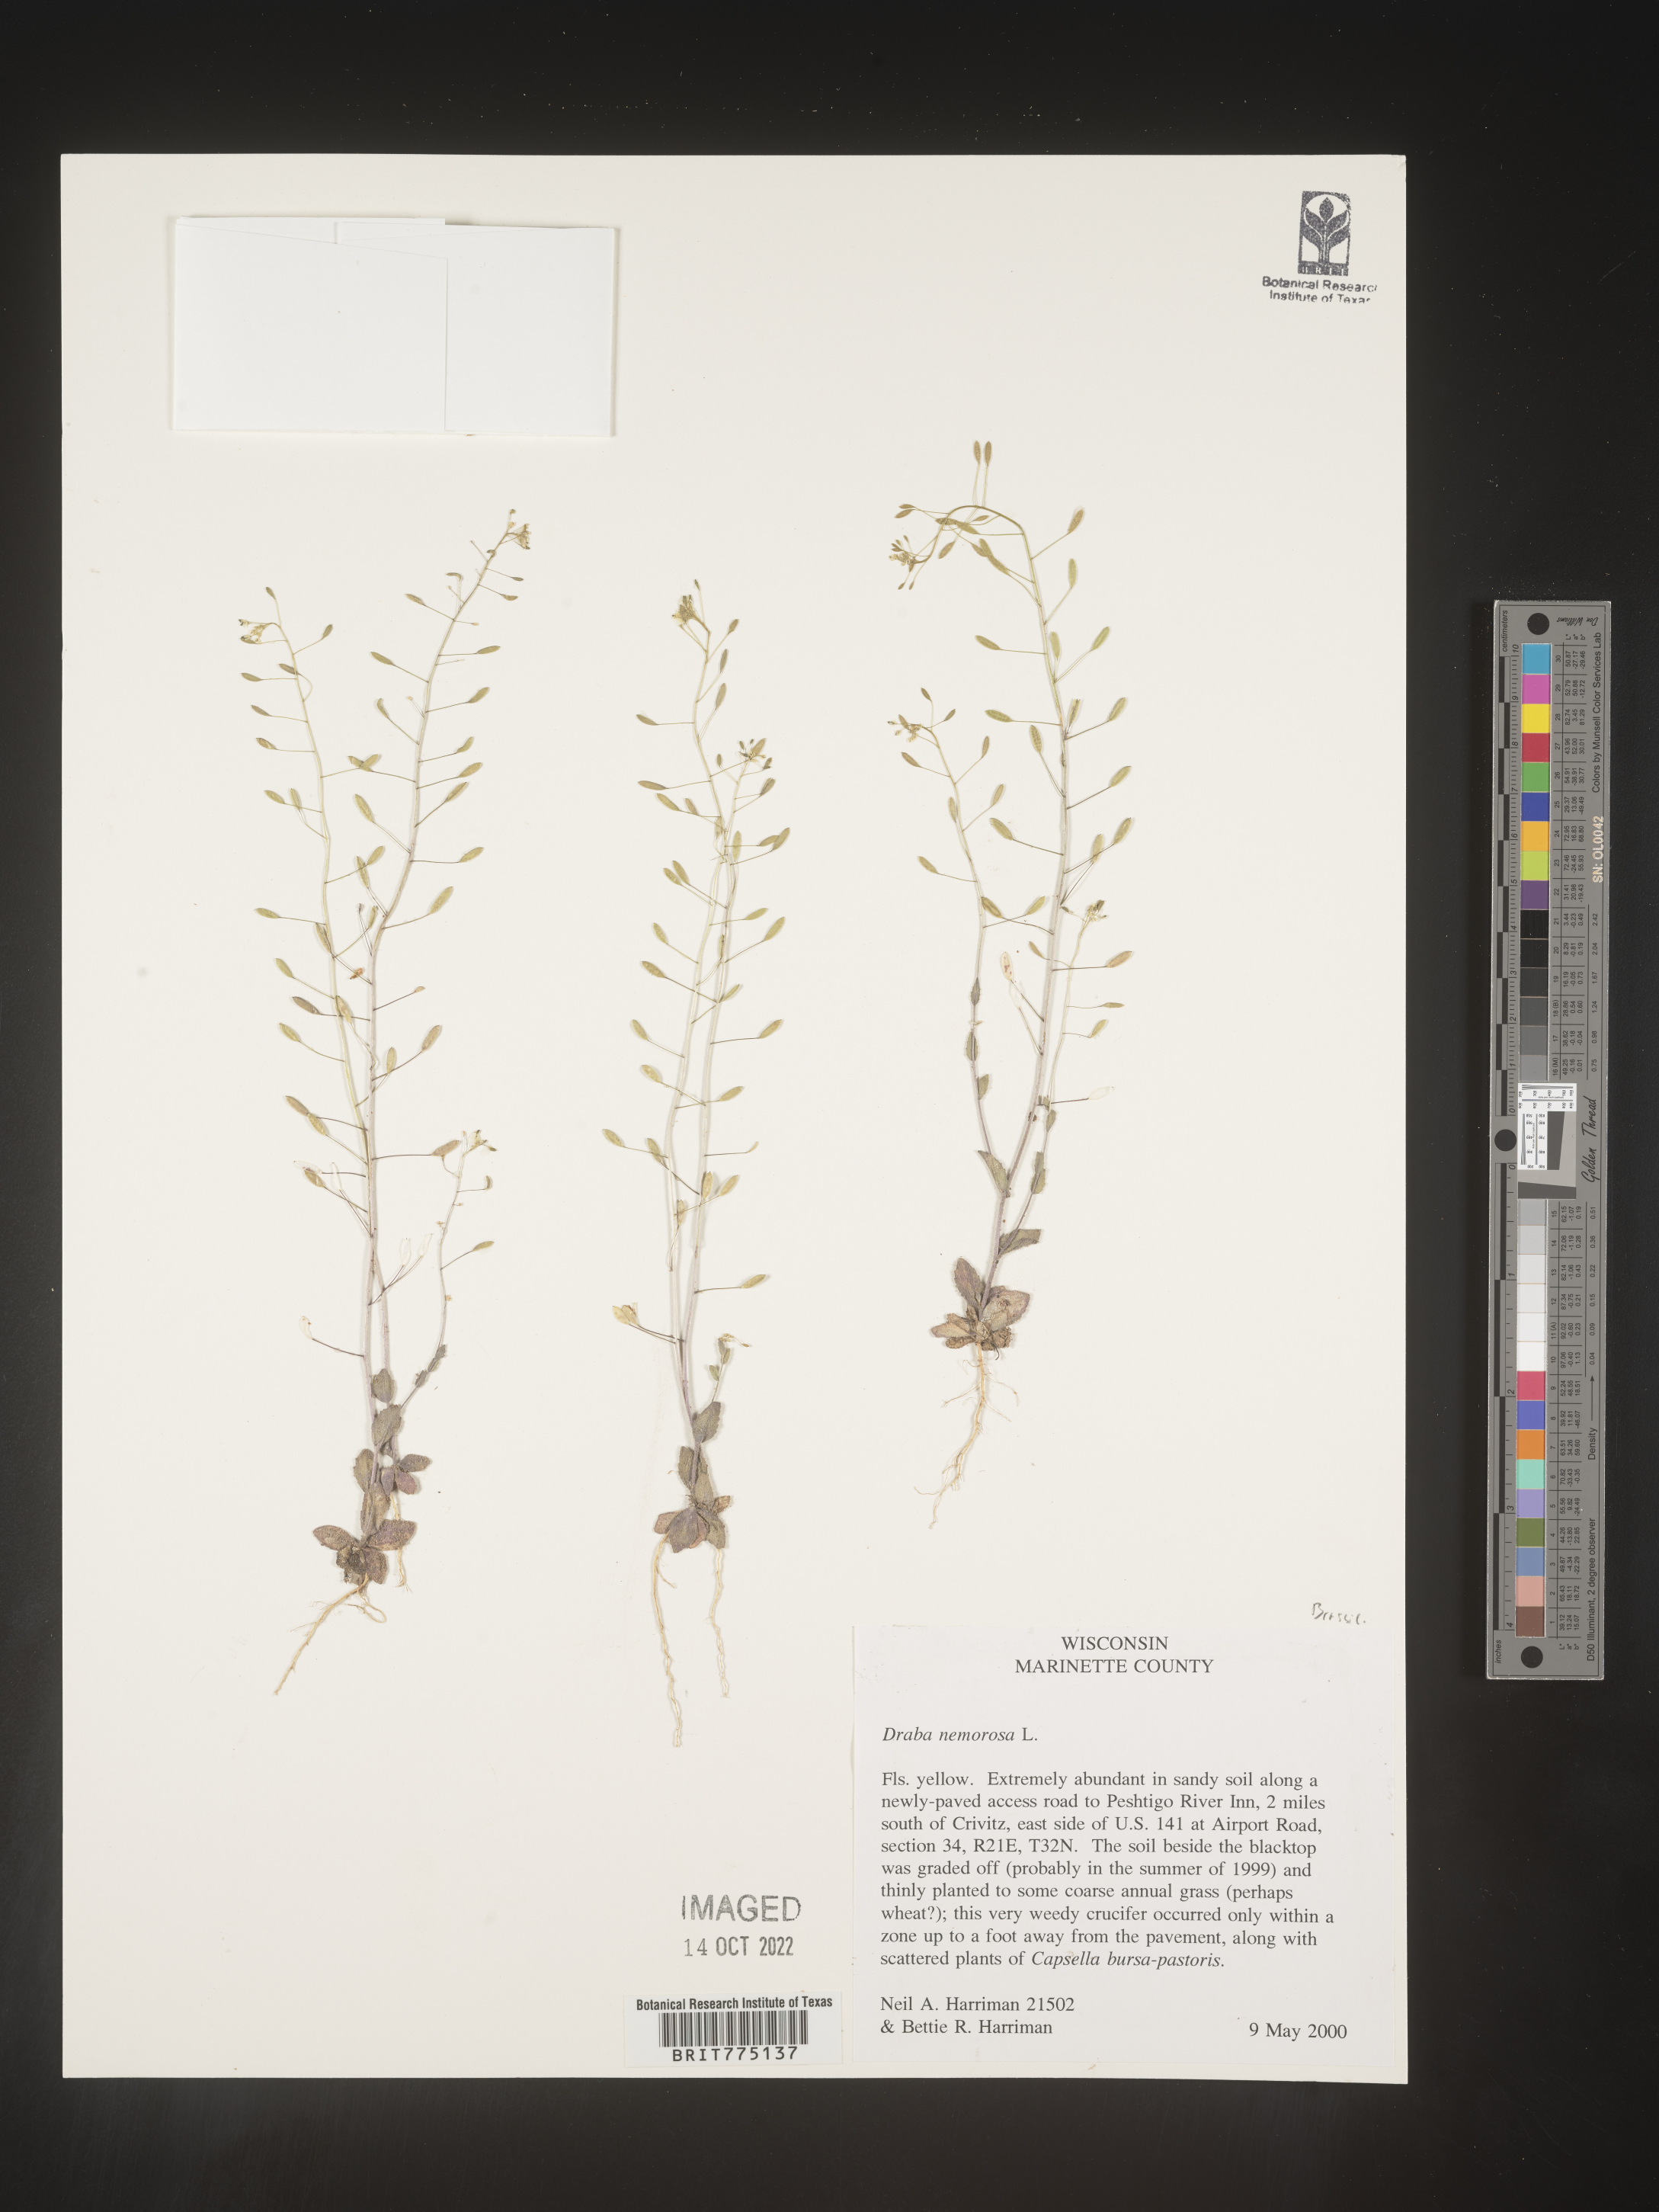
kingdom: Plantae
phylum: Tracheophyta
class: Magnoliopsida
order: Brassicales
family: Brassicaceae
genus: Draba
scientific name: Draba
